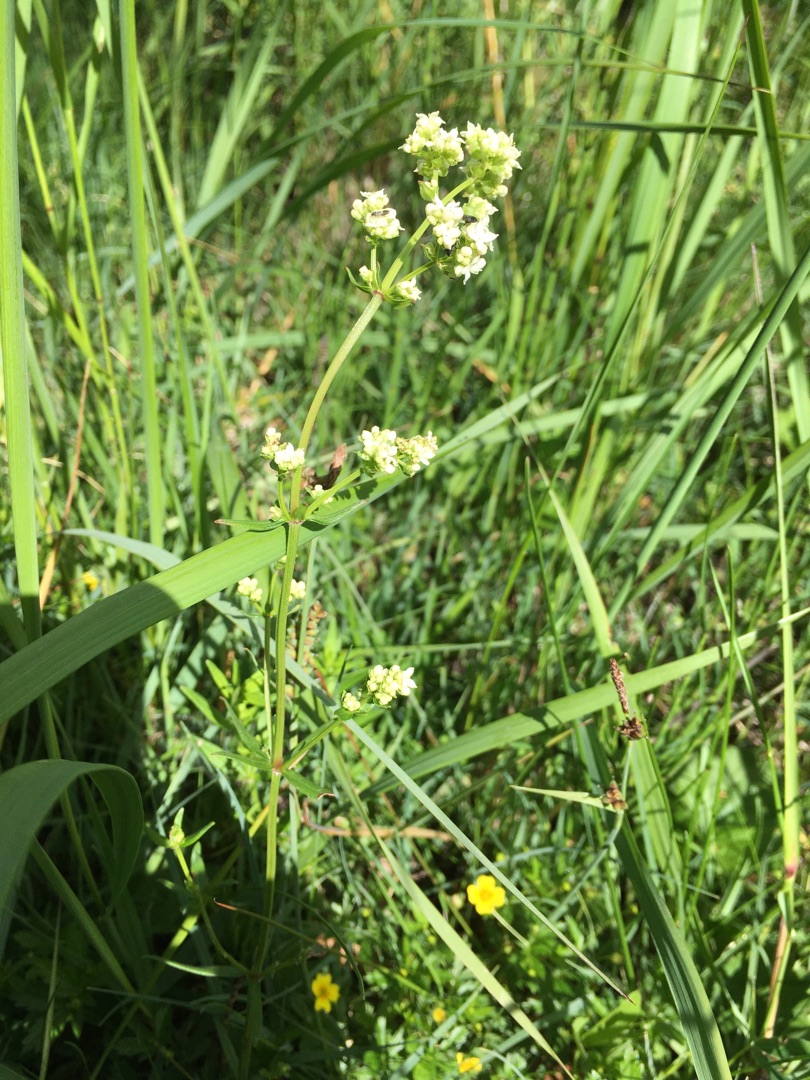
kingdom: Plantae
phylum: Tracheophyta
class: Magnoliopsida
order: Gentianales
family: Rubiaceae
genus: Galium
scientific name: Galium boreale
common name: Trenervet snerre
